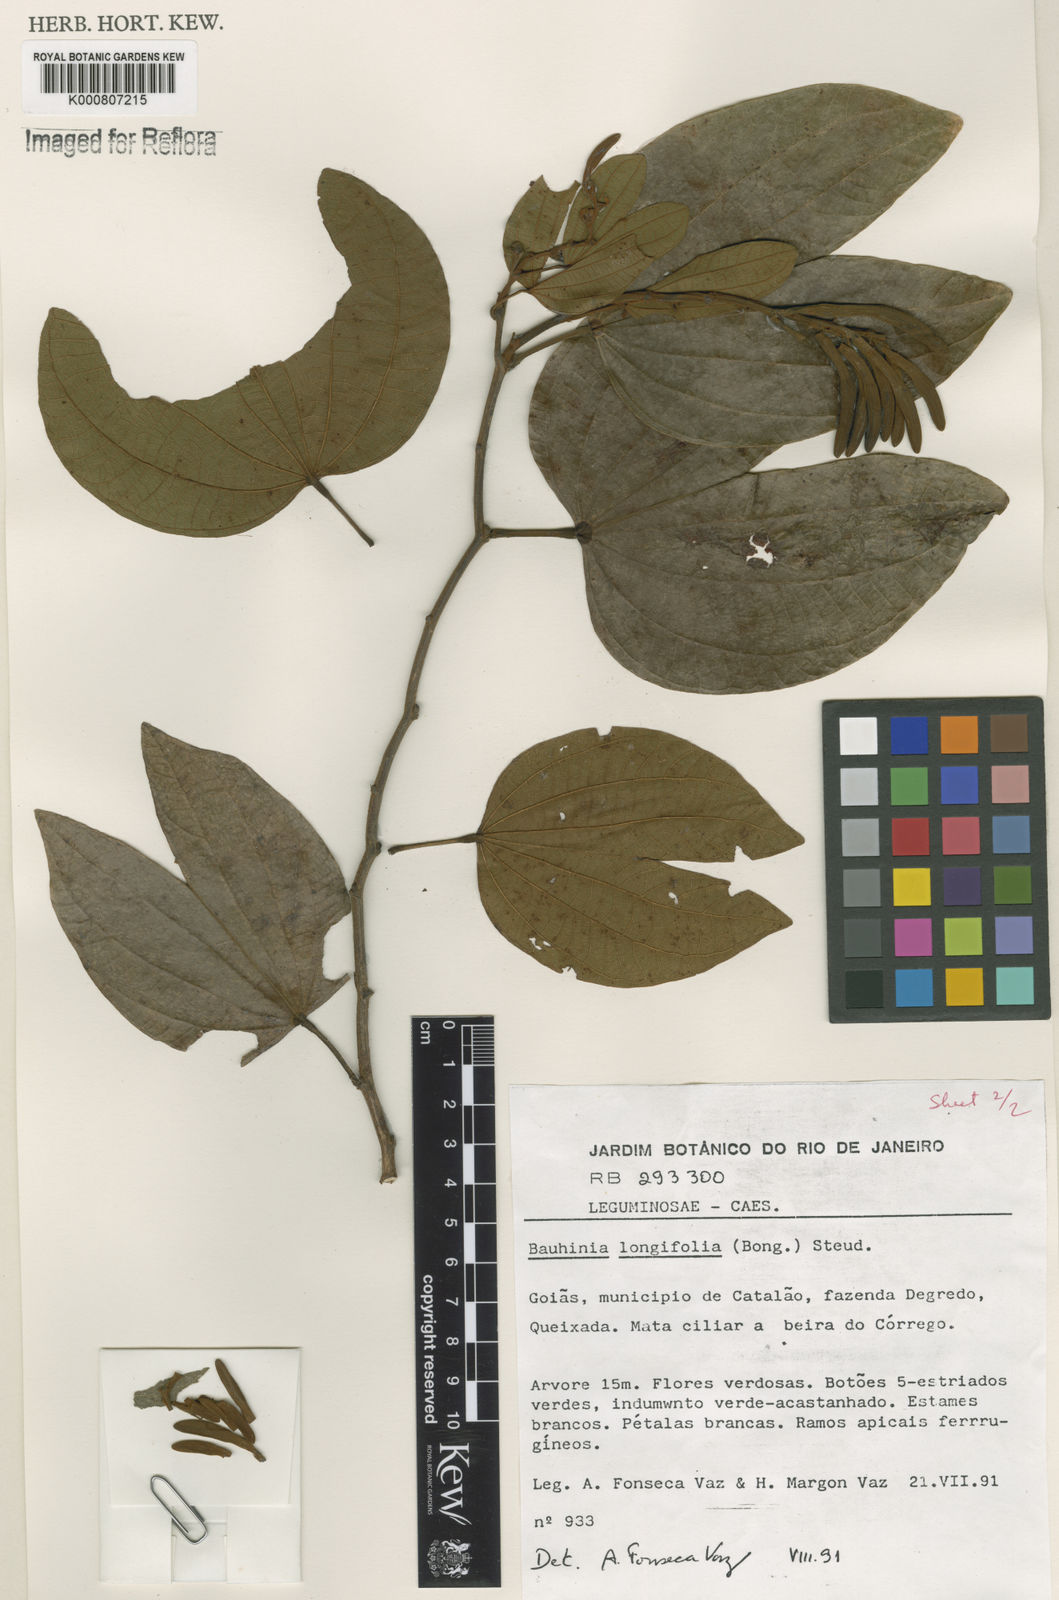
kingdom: Plantae
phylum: Tracheophyta
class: Magnoliopsida
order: Fabales
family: Fabaceae
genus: Bauhinia
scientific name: Bauhinia longifolia
